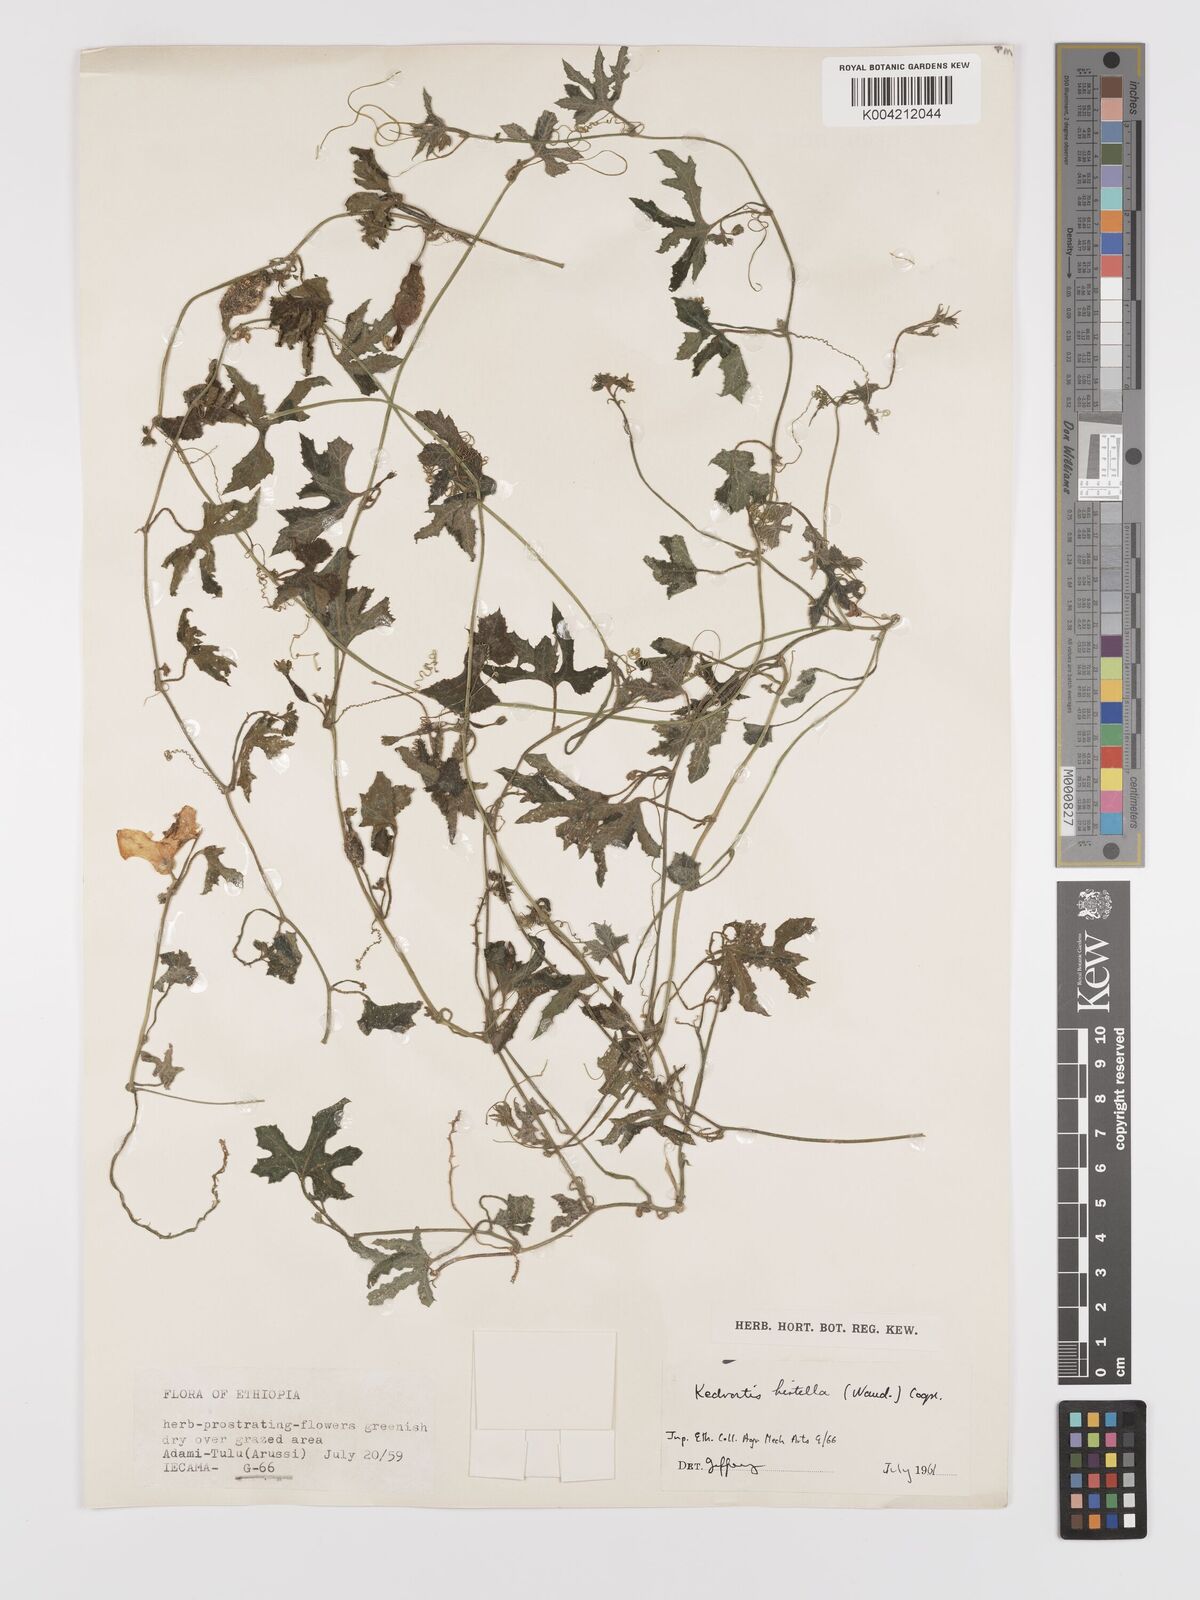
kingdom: Plantae
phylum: Tracheophyta
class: Magnoliopsida
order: Cucurbitales
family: Cucurbitaceae
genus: Kedrostis
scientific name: Kedrostis leloja
